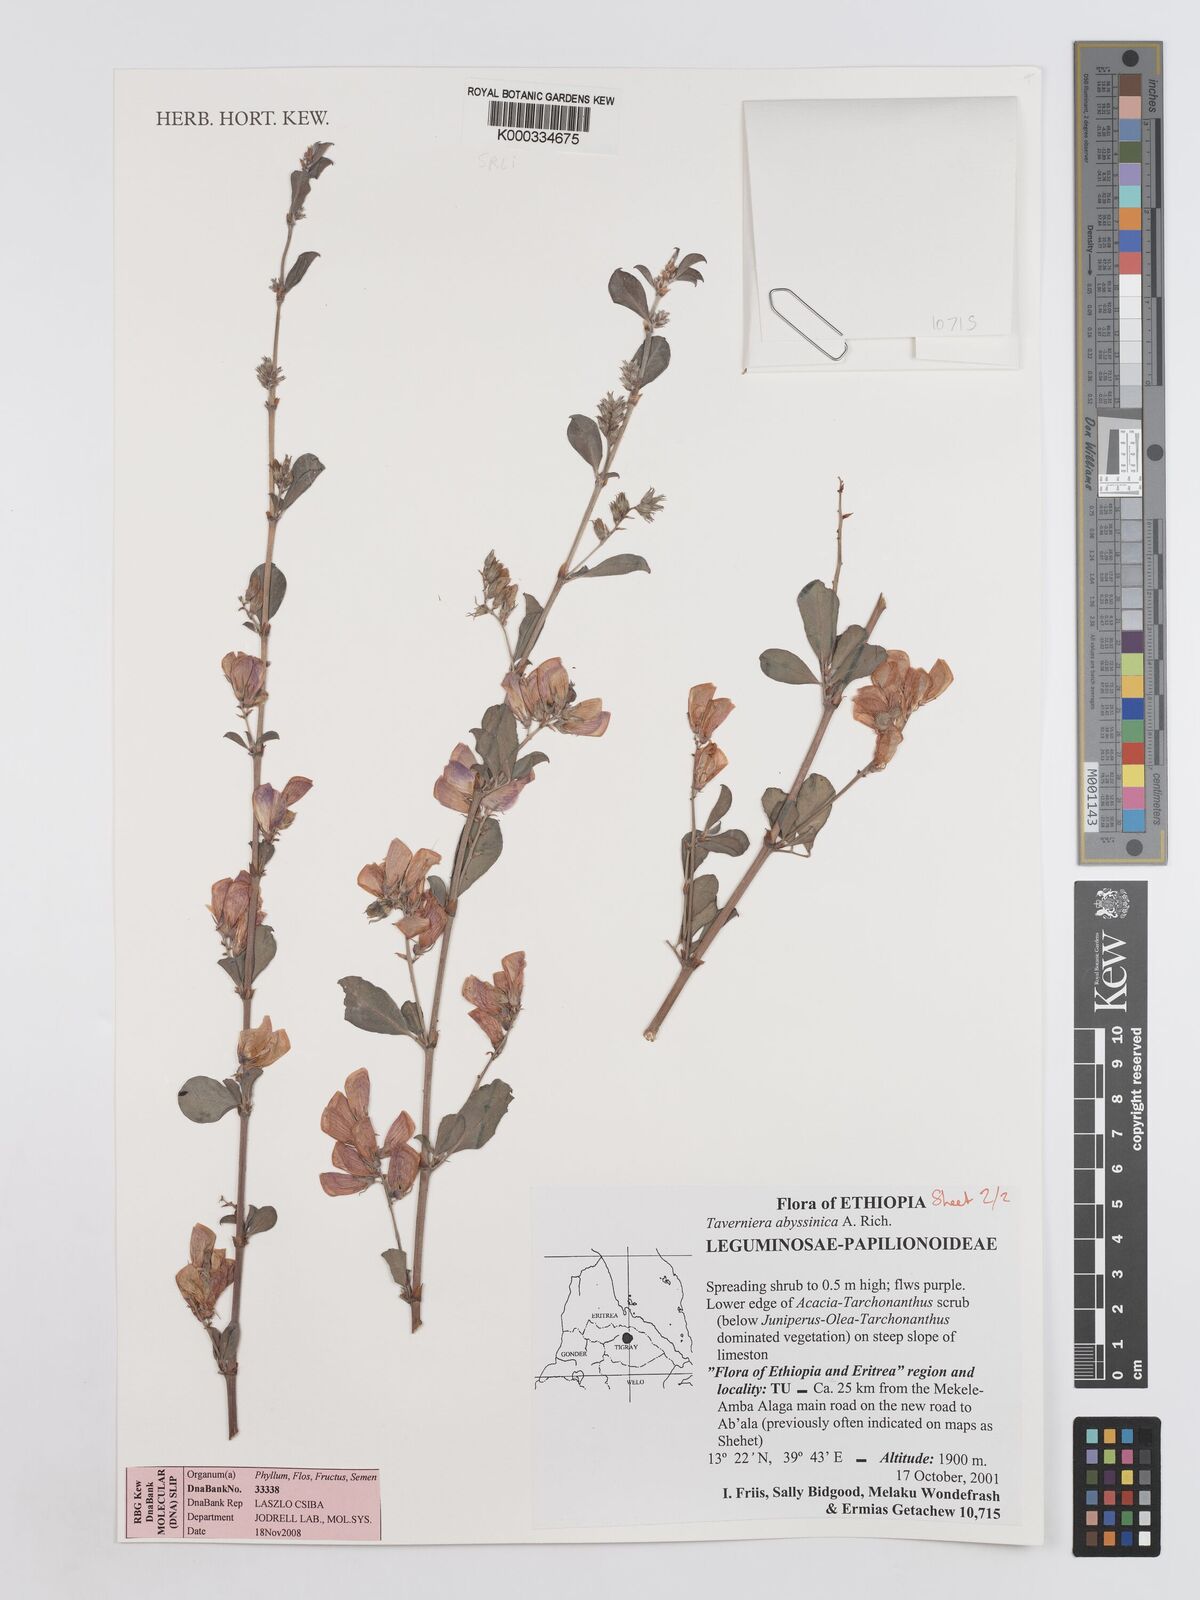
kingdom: Plantae
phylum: Tracheophyta
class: Magnoliopsida
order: Fabales
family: Fabaceae
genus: Taverniera
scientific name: Taverniera abyssinica
